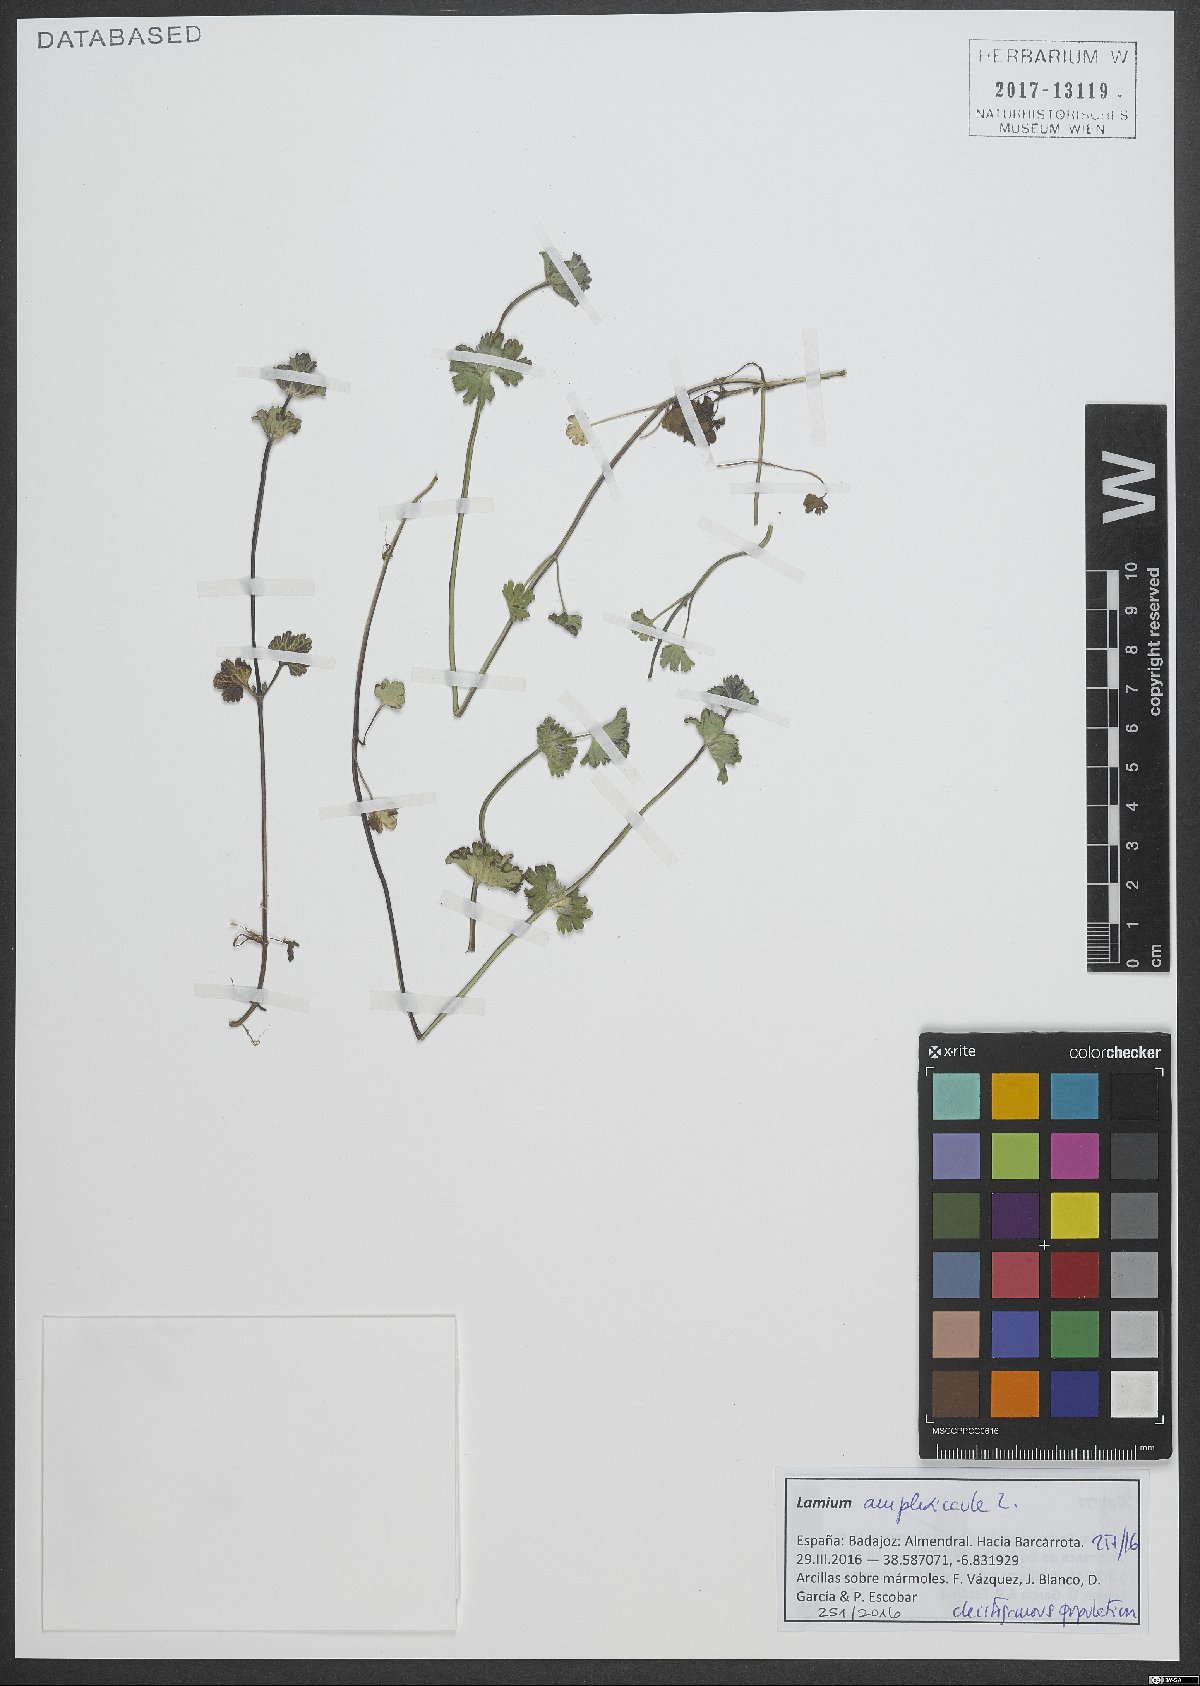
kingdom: Plantae
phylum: Tracheophyta
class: Magnoliopsida
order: Lamiales
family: Lamiaceae
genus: Lamium
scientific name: Lamium amplexicaule
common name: Henbit dead-nettle
